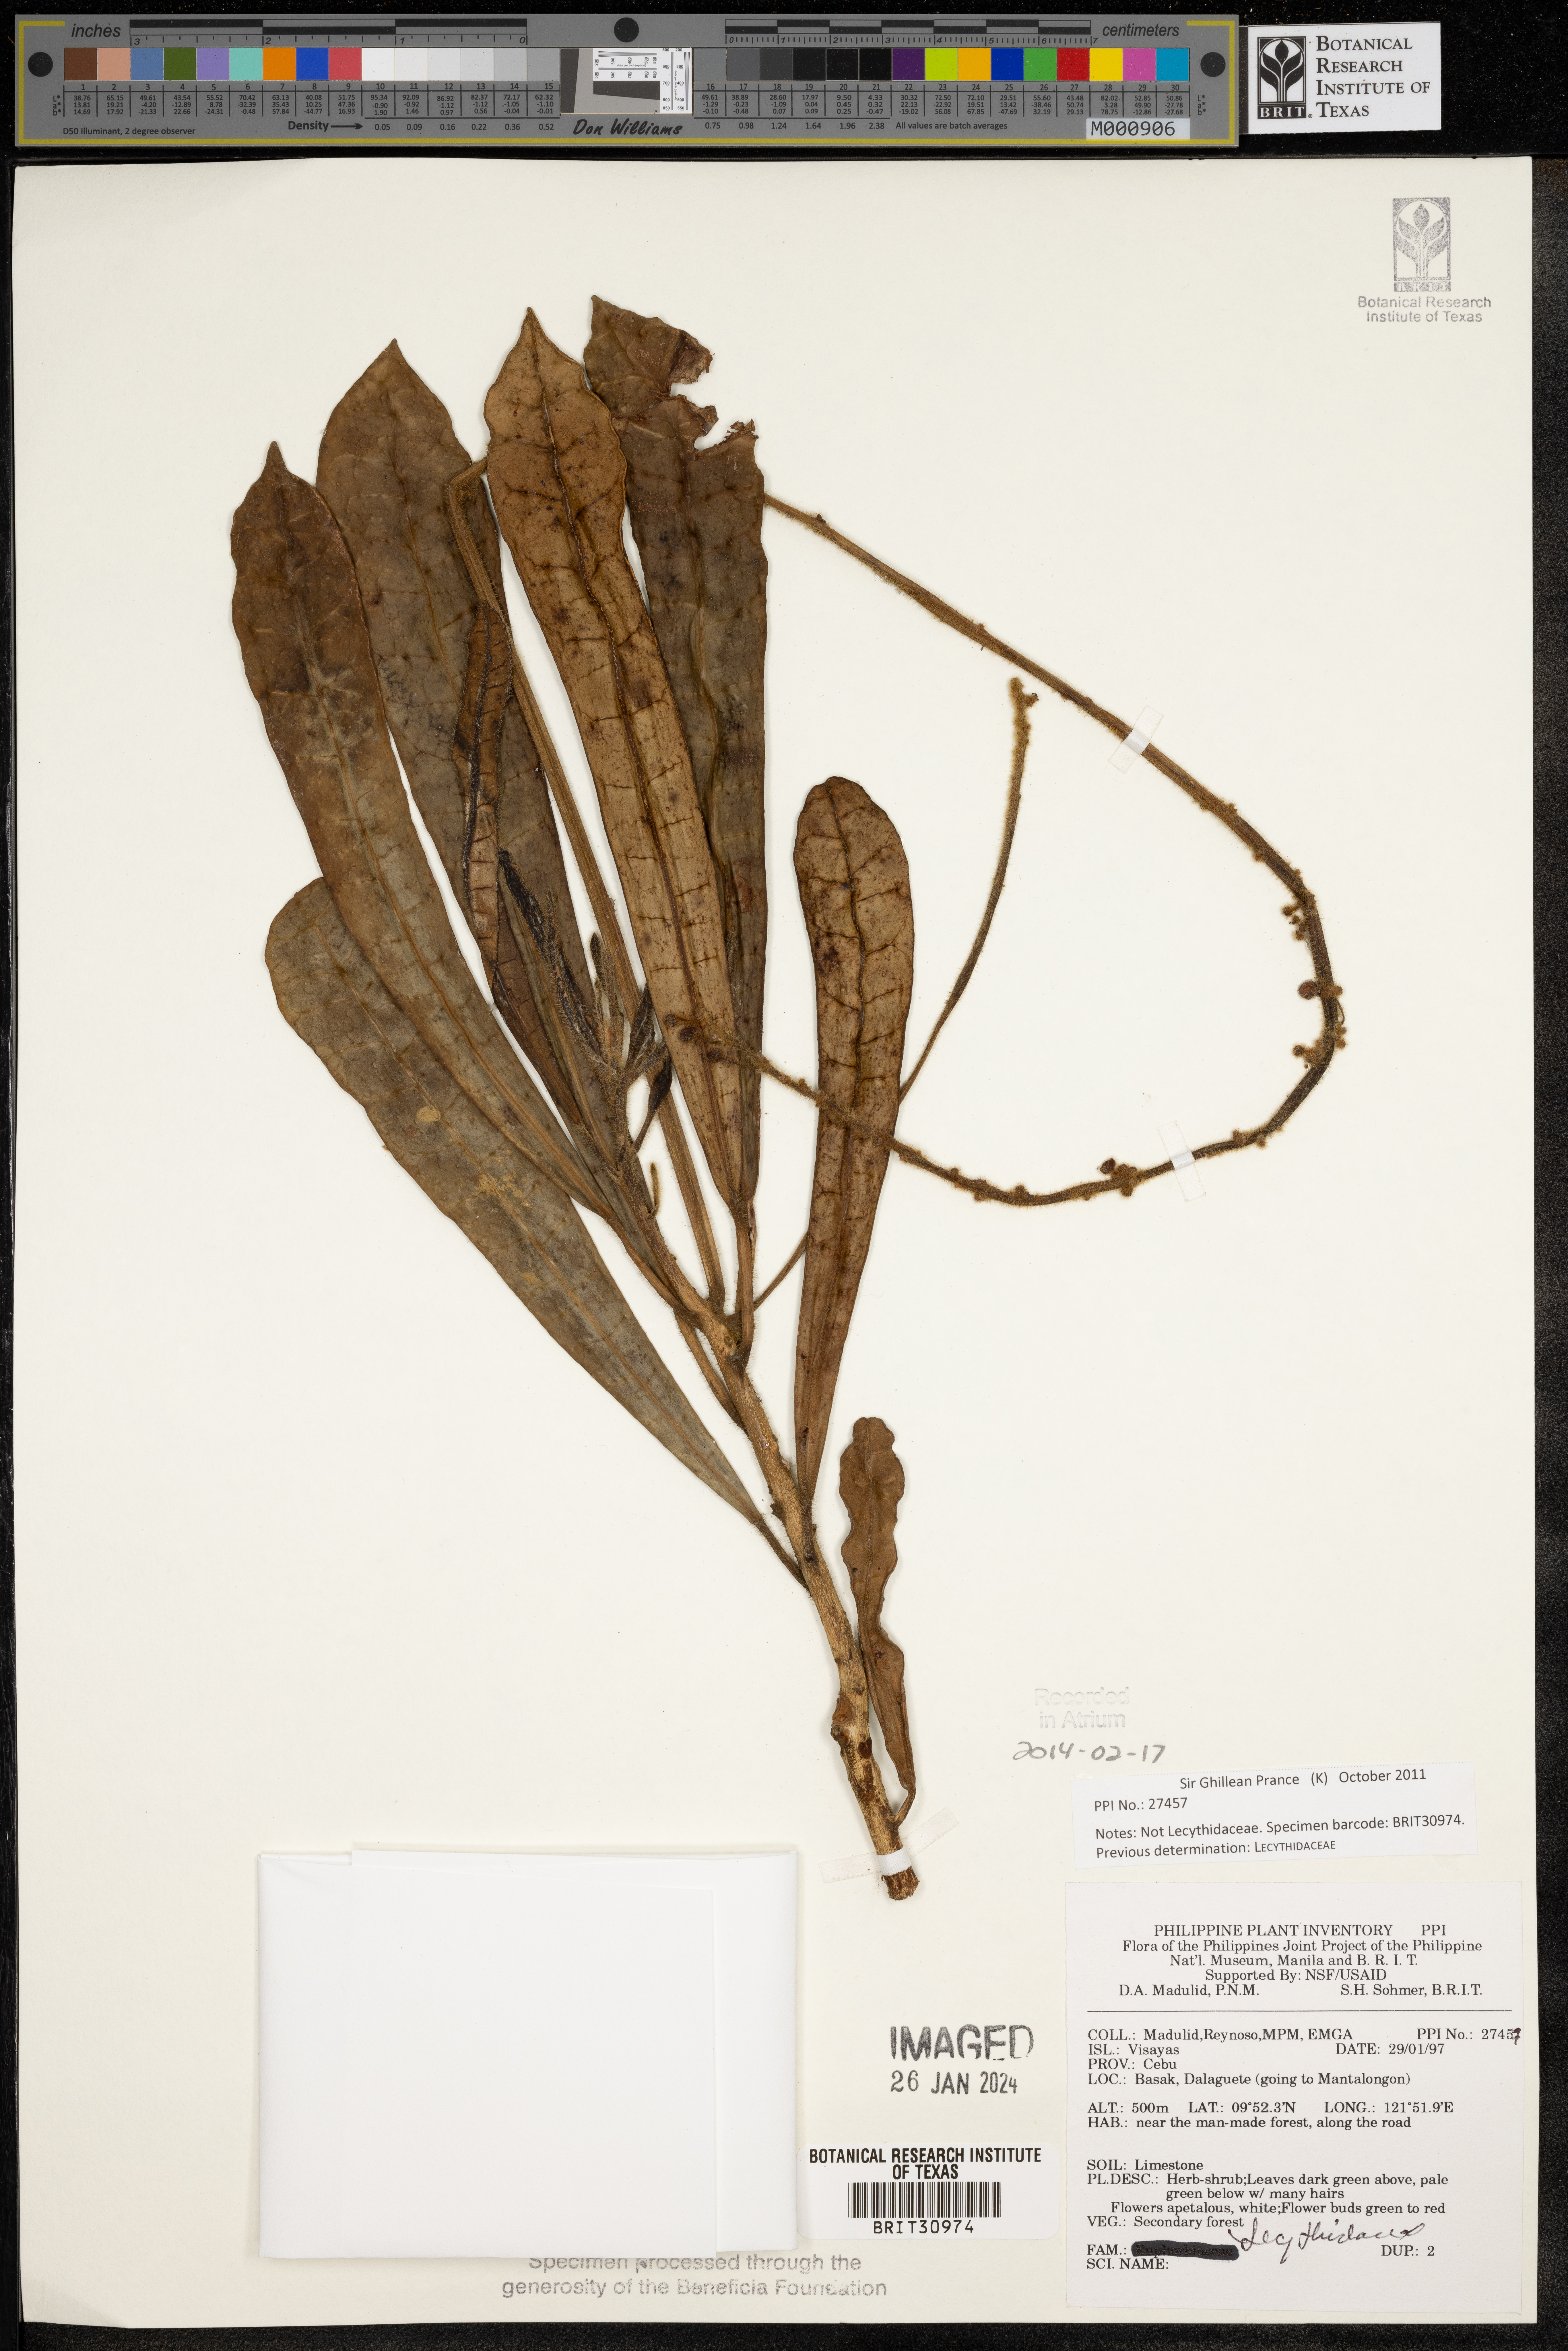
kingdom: Plantae
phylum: Tracheophyta
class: Magnoliopsida
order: Ericales
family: Lecythidaceae
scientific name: Lecythidaceae
